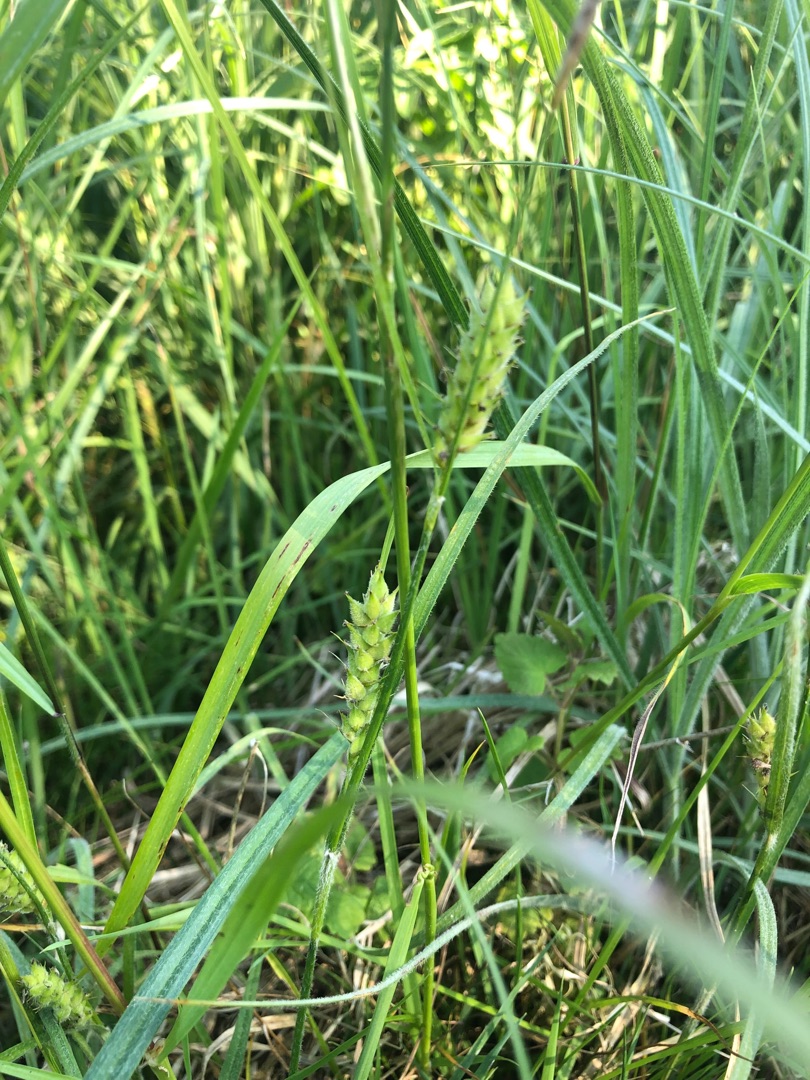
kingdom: Plantae
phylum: Tracheophyta
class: Liliopsida
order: Poales
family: Cyperaceae
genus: Carex
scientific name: Carex hirta
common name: Håret star
